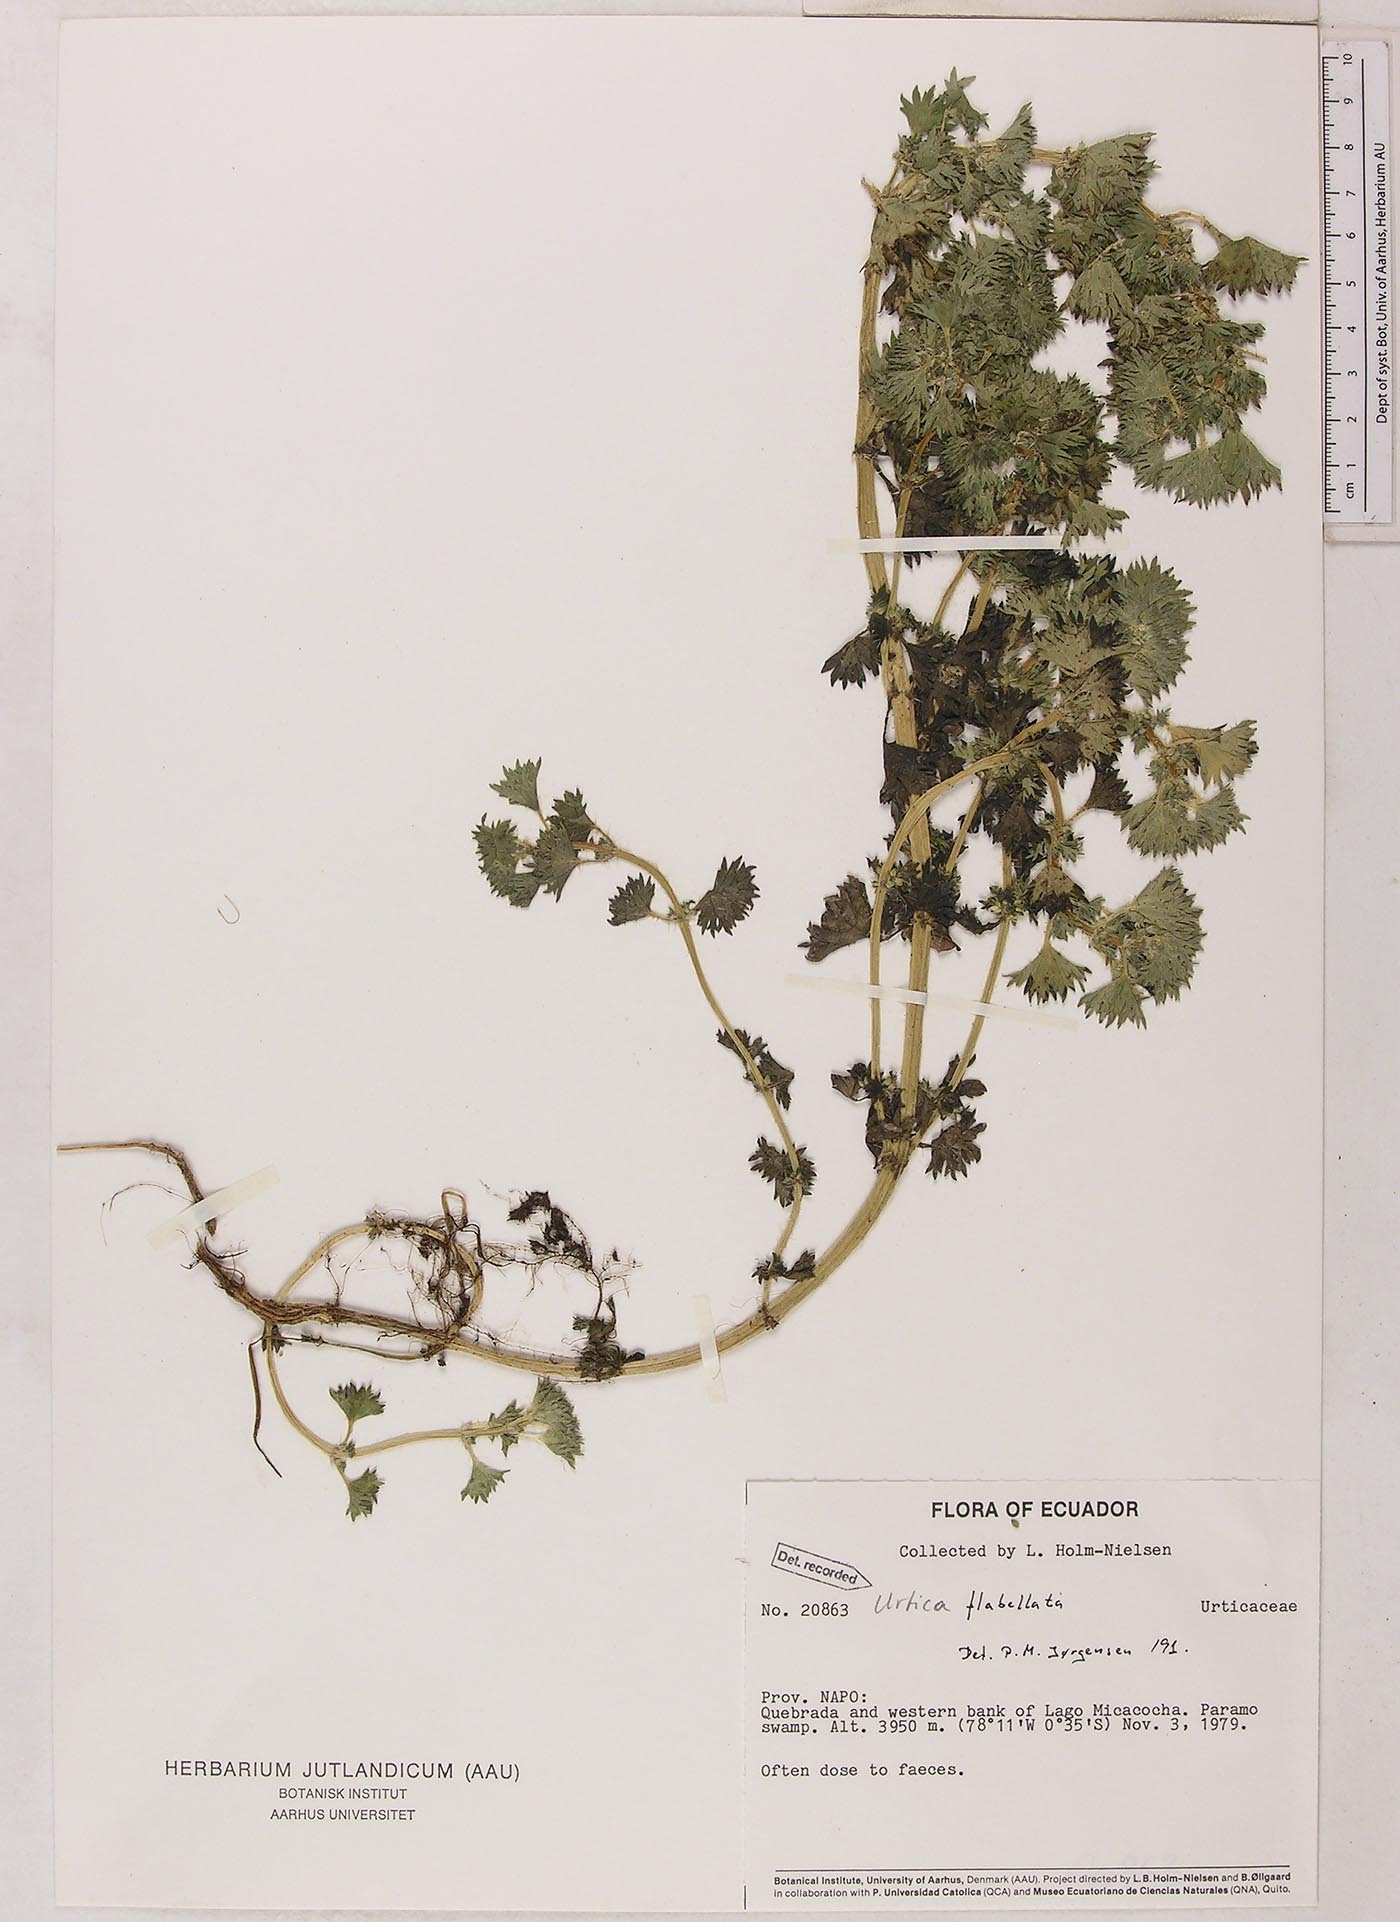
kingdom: Plantae
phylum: Tracheophyta
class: Magnoliopsida
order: Rosales
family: Urticaceae
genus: Urtica
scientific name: Urtica flabellata
